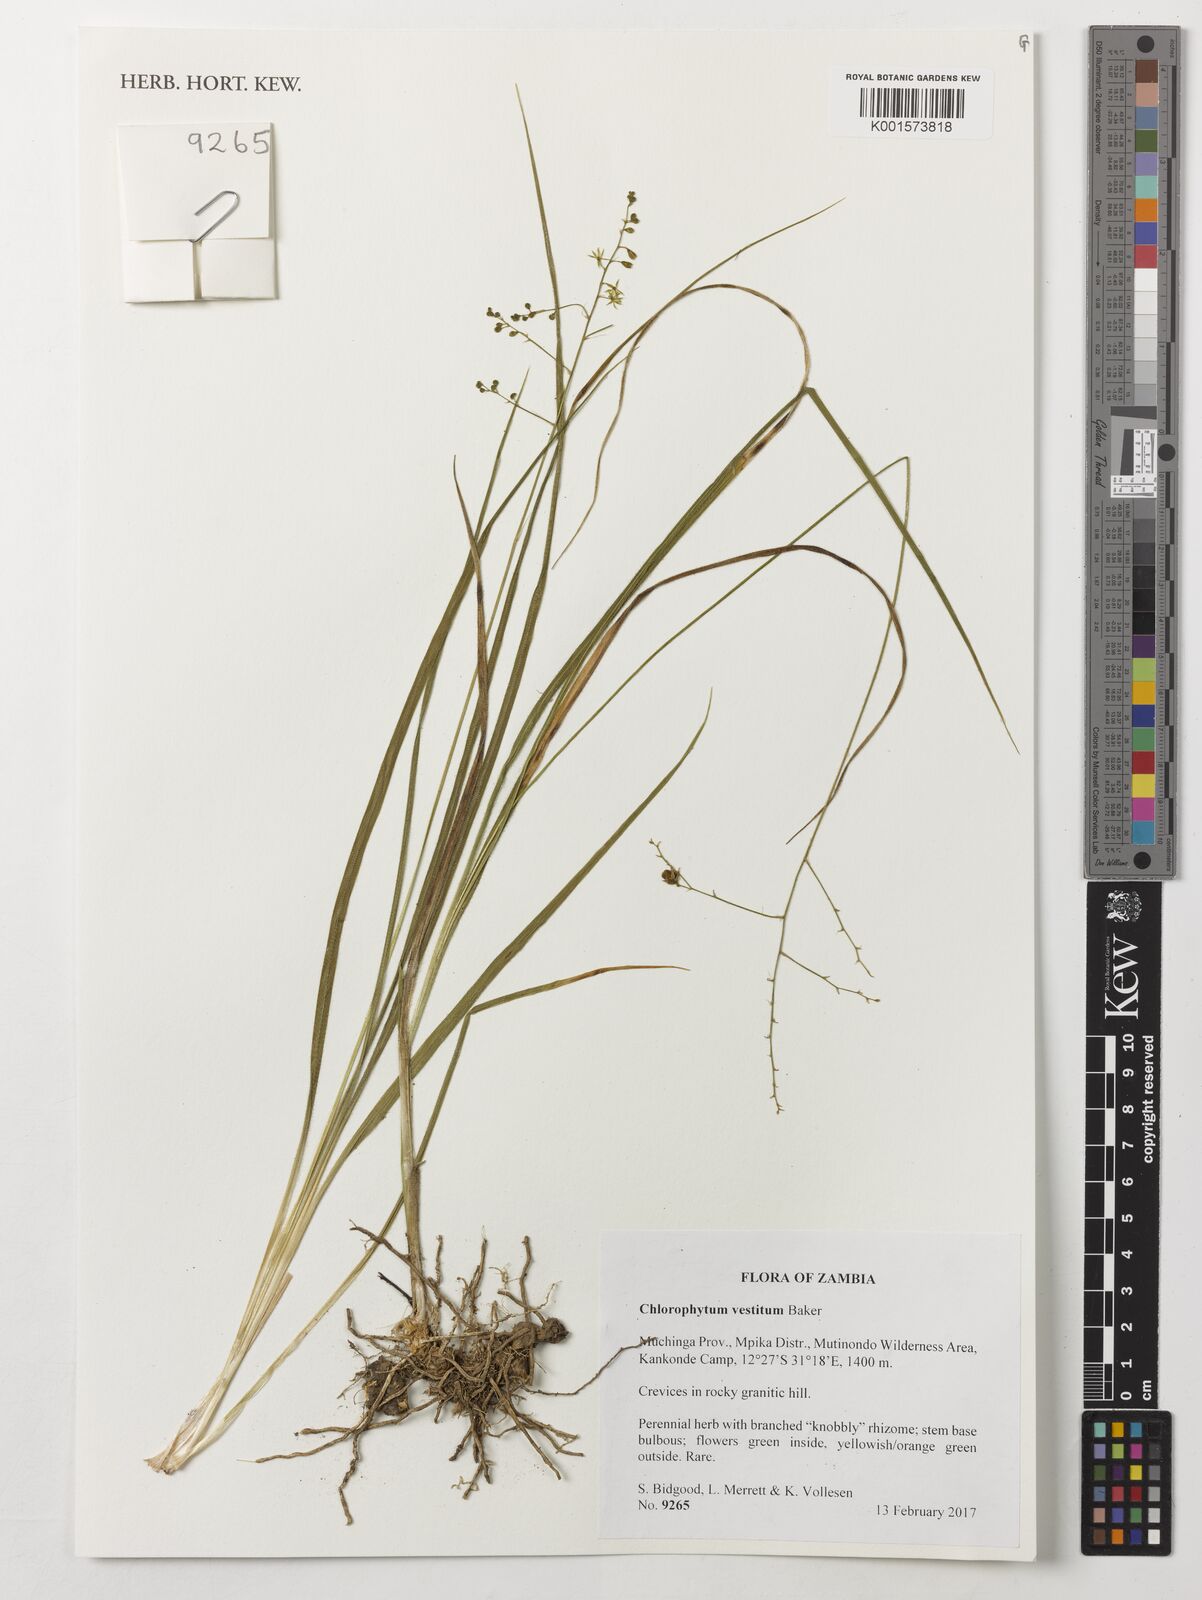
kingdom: Plantae
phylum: Tracheophyta
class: Liliopsida
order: Asparagales
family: Asparagaceae
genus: Chlorophytum
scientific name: Chlorophytum vestitum
